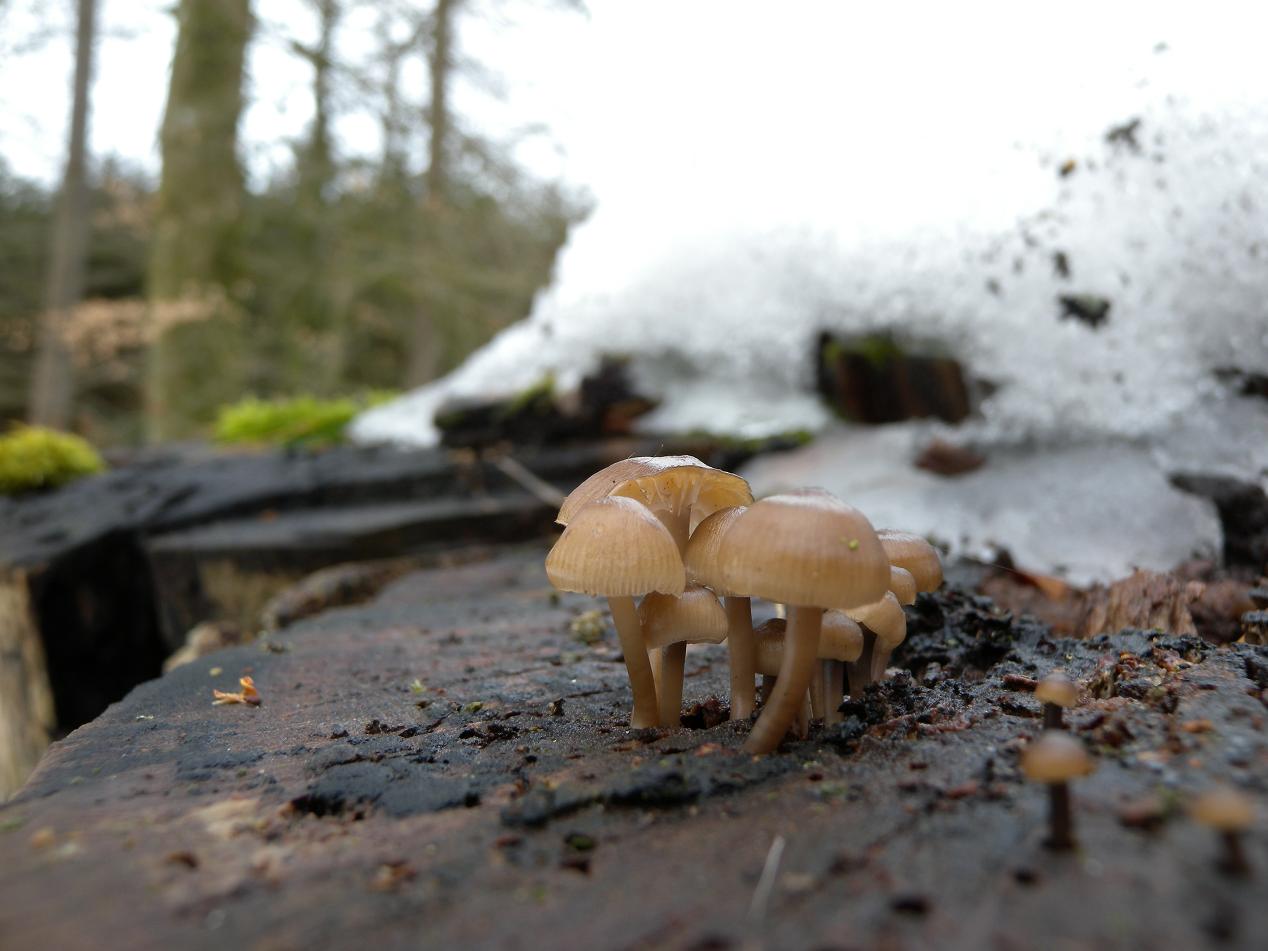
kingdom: Fungi
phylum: Basidiomycota
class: Agaricomycetes
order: Agaricales
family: Mycenaceae
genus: Mycena
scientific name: Mycena tintinnabulum
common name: vinter-huesvamp
